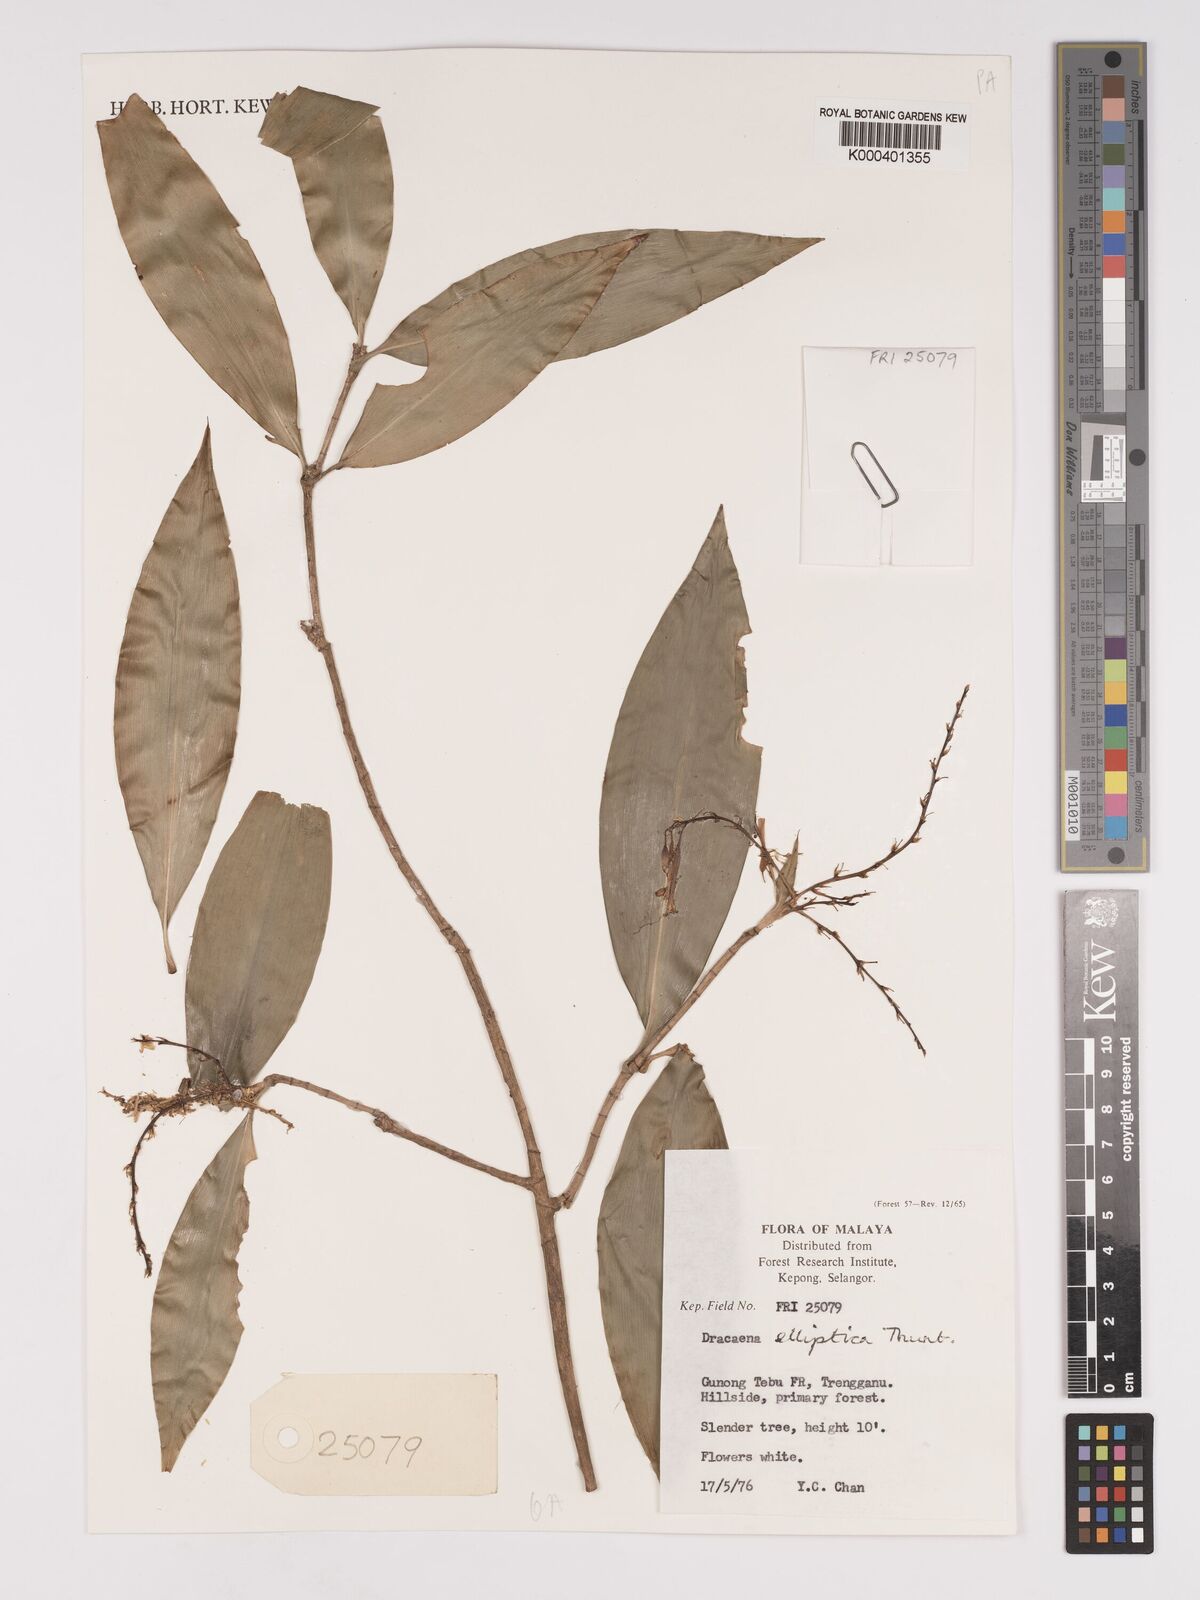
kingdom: Plantae
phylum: Tracheophyta
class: Liliopsida
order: Asparagales
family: Asparagaceae
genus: Dracaena
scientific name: Dracaena elliptica
